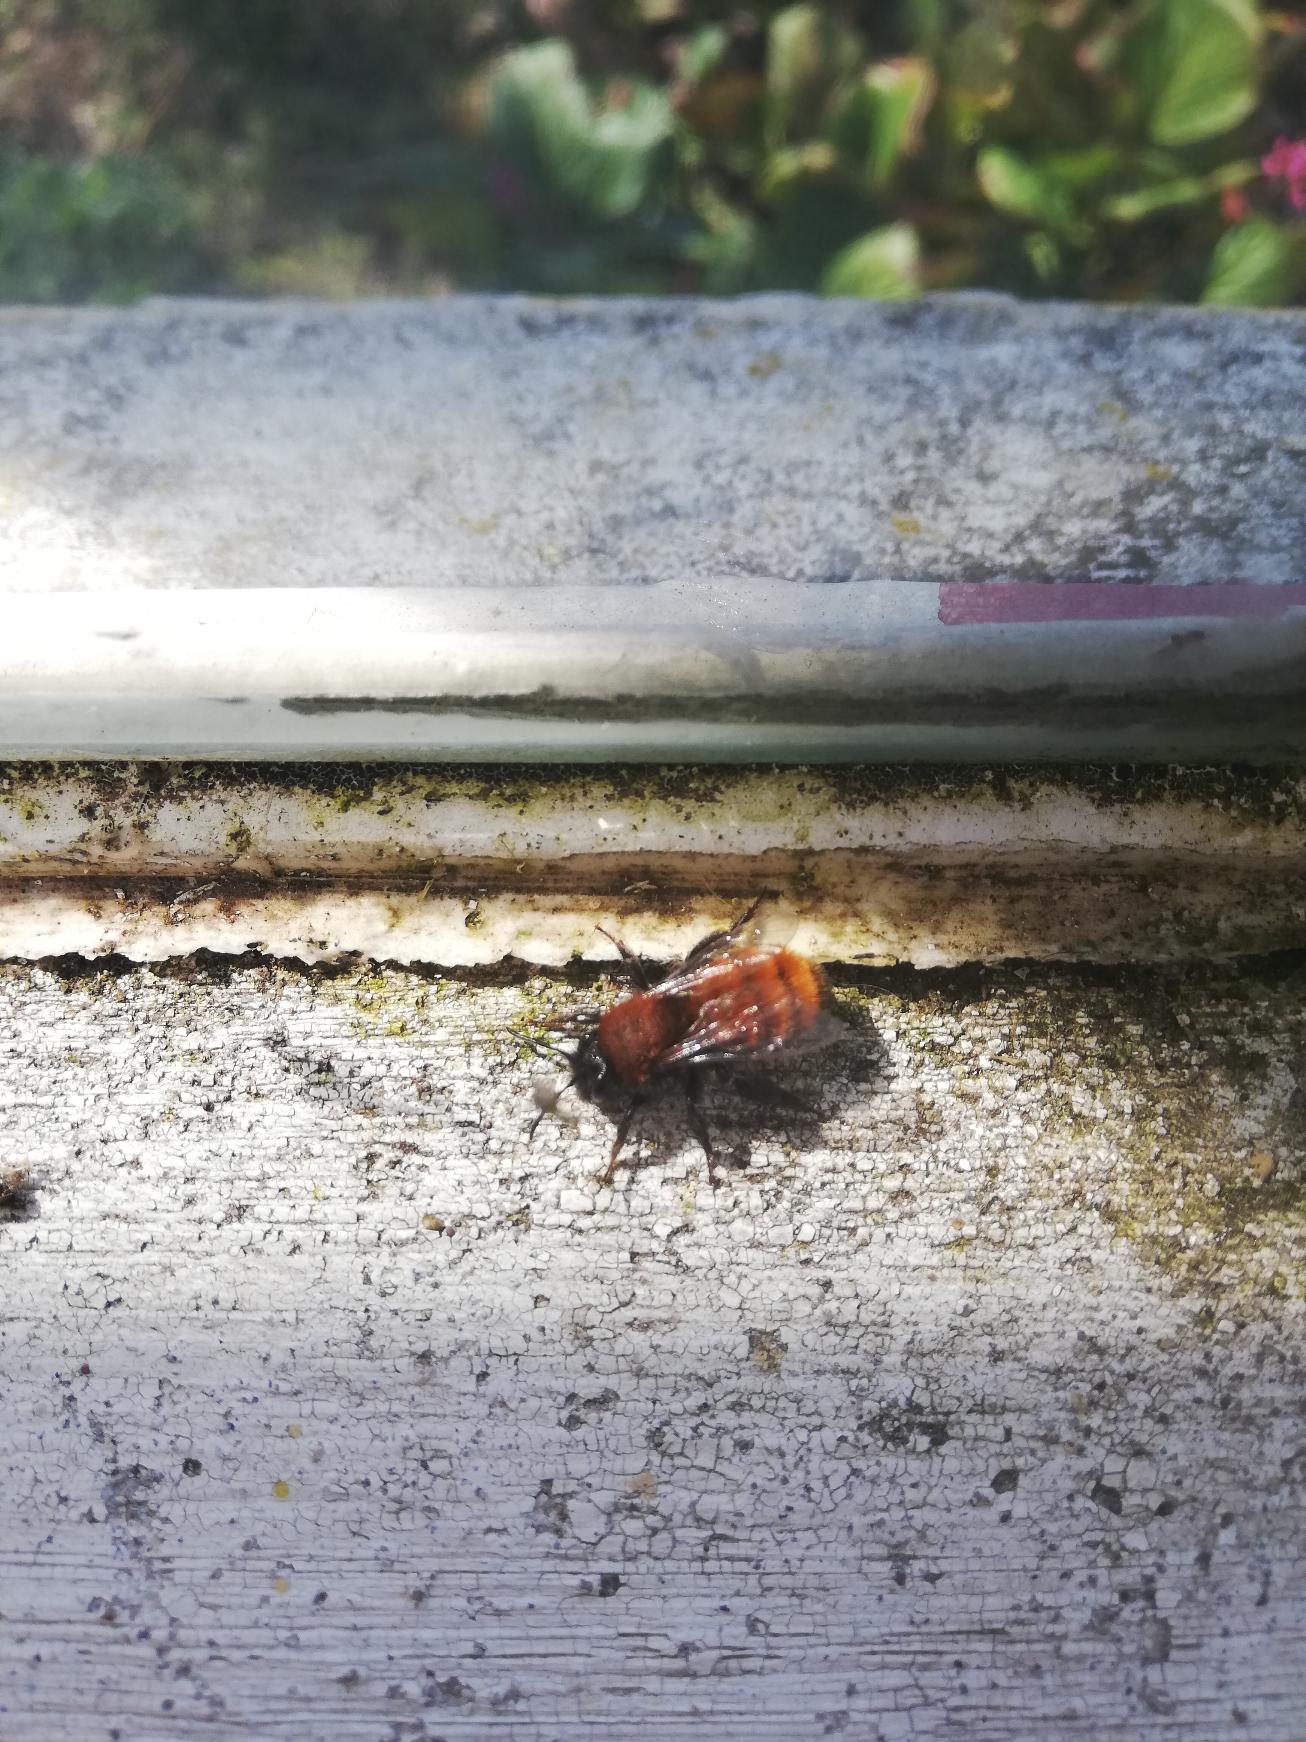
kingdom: Animalia
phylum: Arthropoda
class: Insecta
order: Hymenoptera
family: Andrenidae
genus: Andrena
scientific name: Andrena fulva
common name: Rødpelset jordbi
